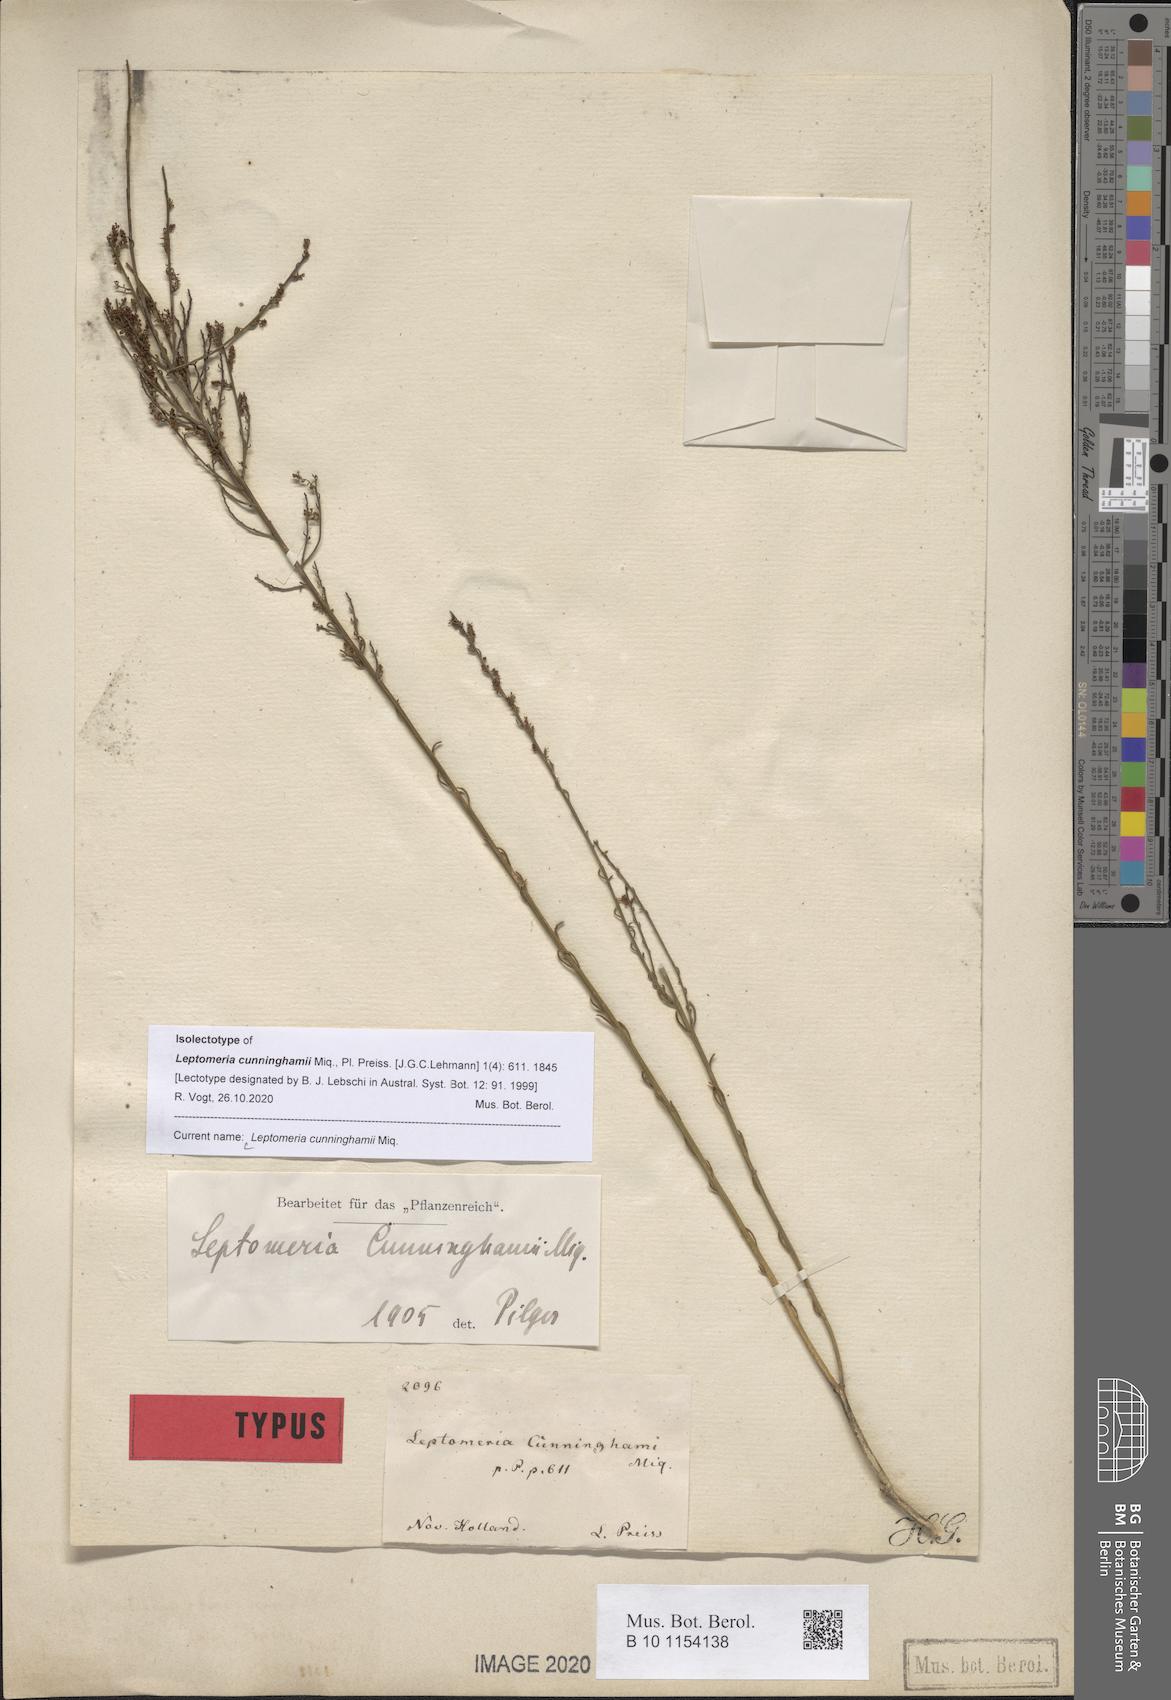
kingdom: Plantae
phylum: Tracheophyta
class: Magnoliopsida
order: Santalales
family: Amphorogynaceae
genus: Leptomeria
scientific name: Leptomeria cunninghamii
